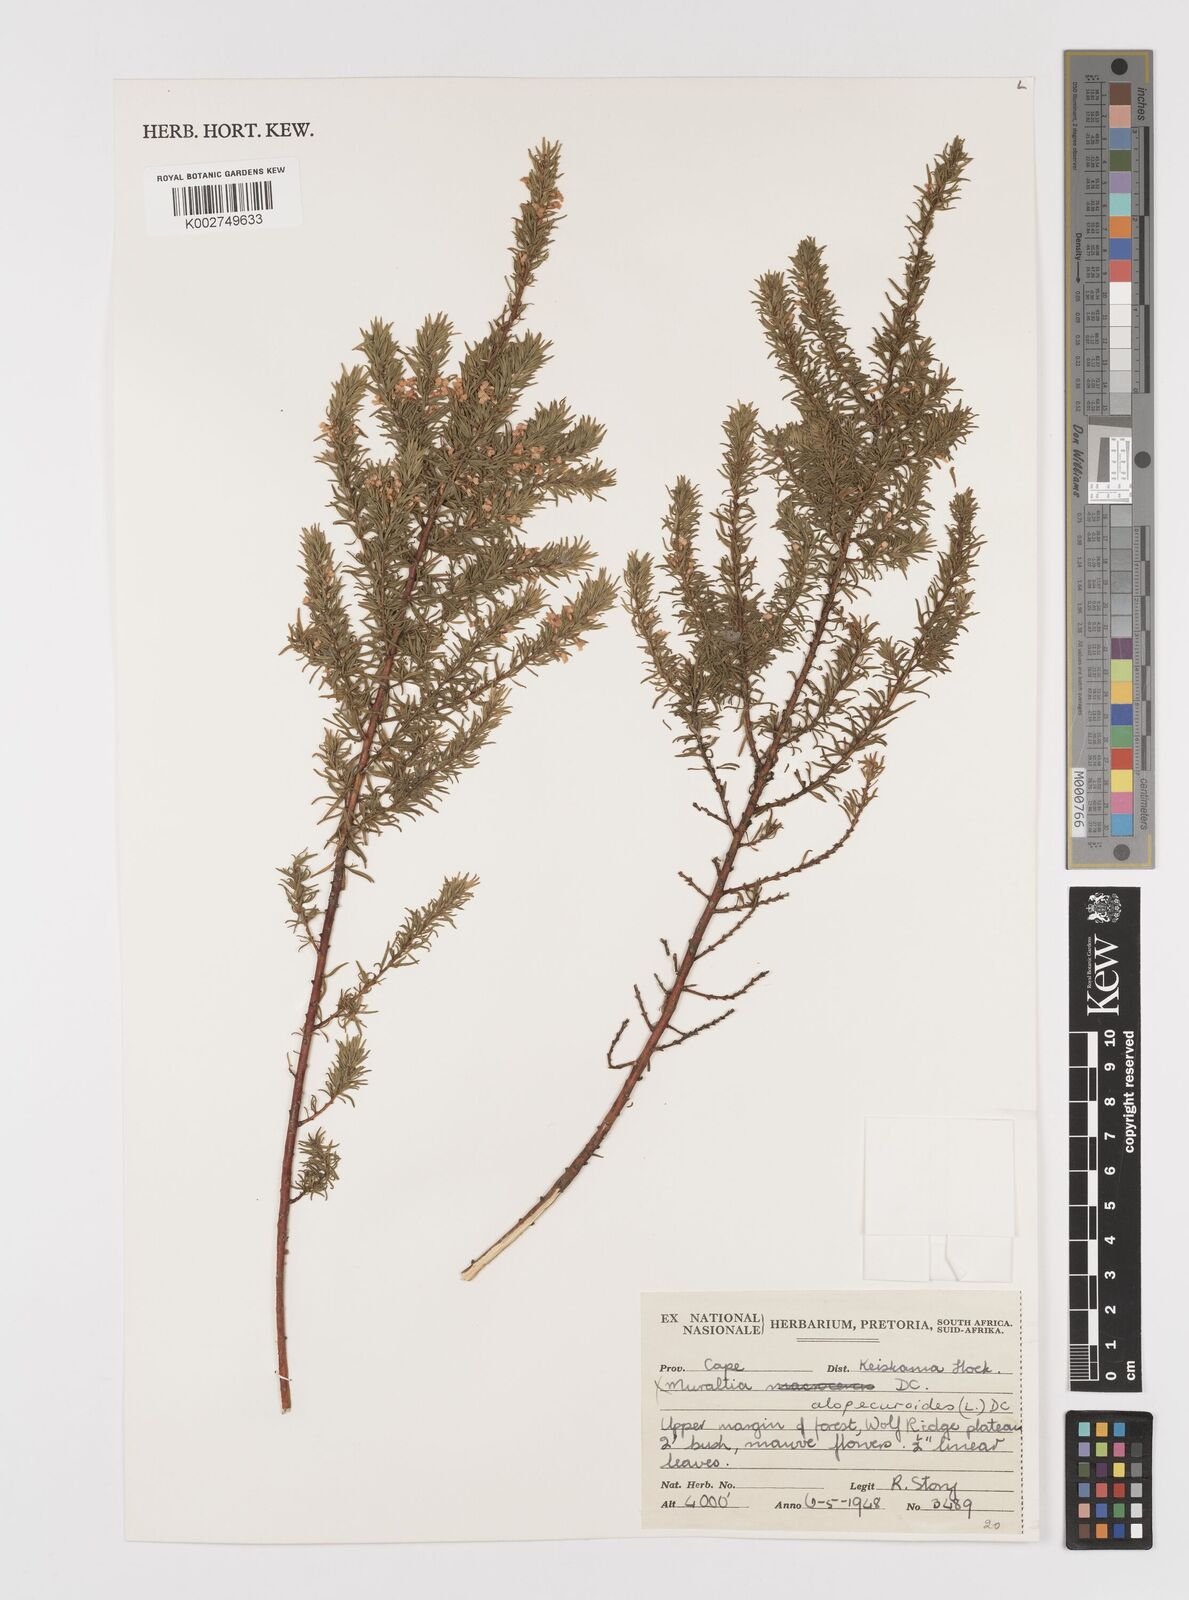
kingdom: Plantae
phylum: Tracheophyta
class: Magnoliopsida
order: Fabales
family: Polygalaceae
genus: Muraltia
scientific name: Muraltia alopecuroides
